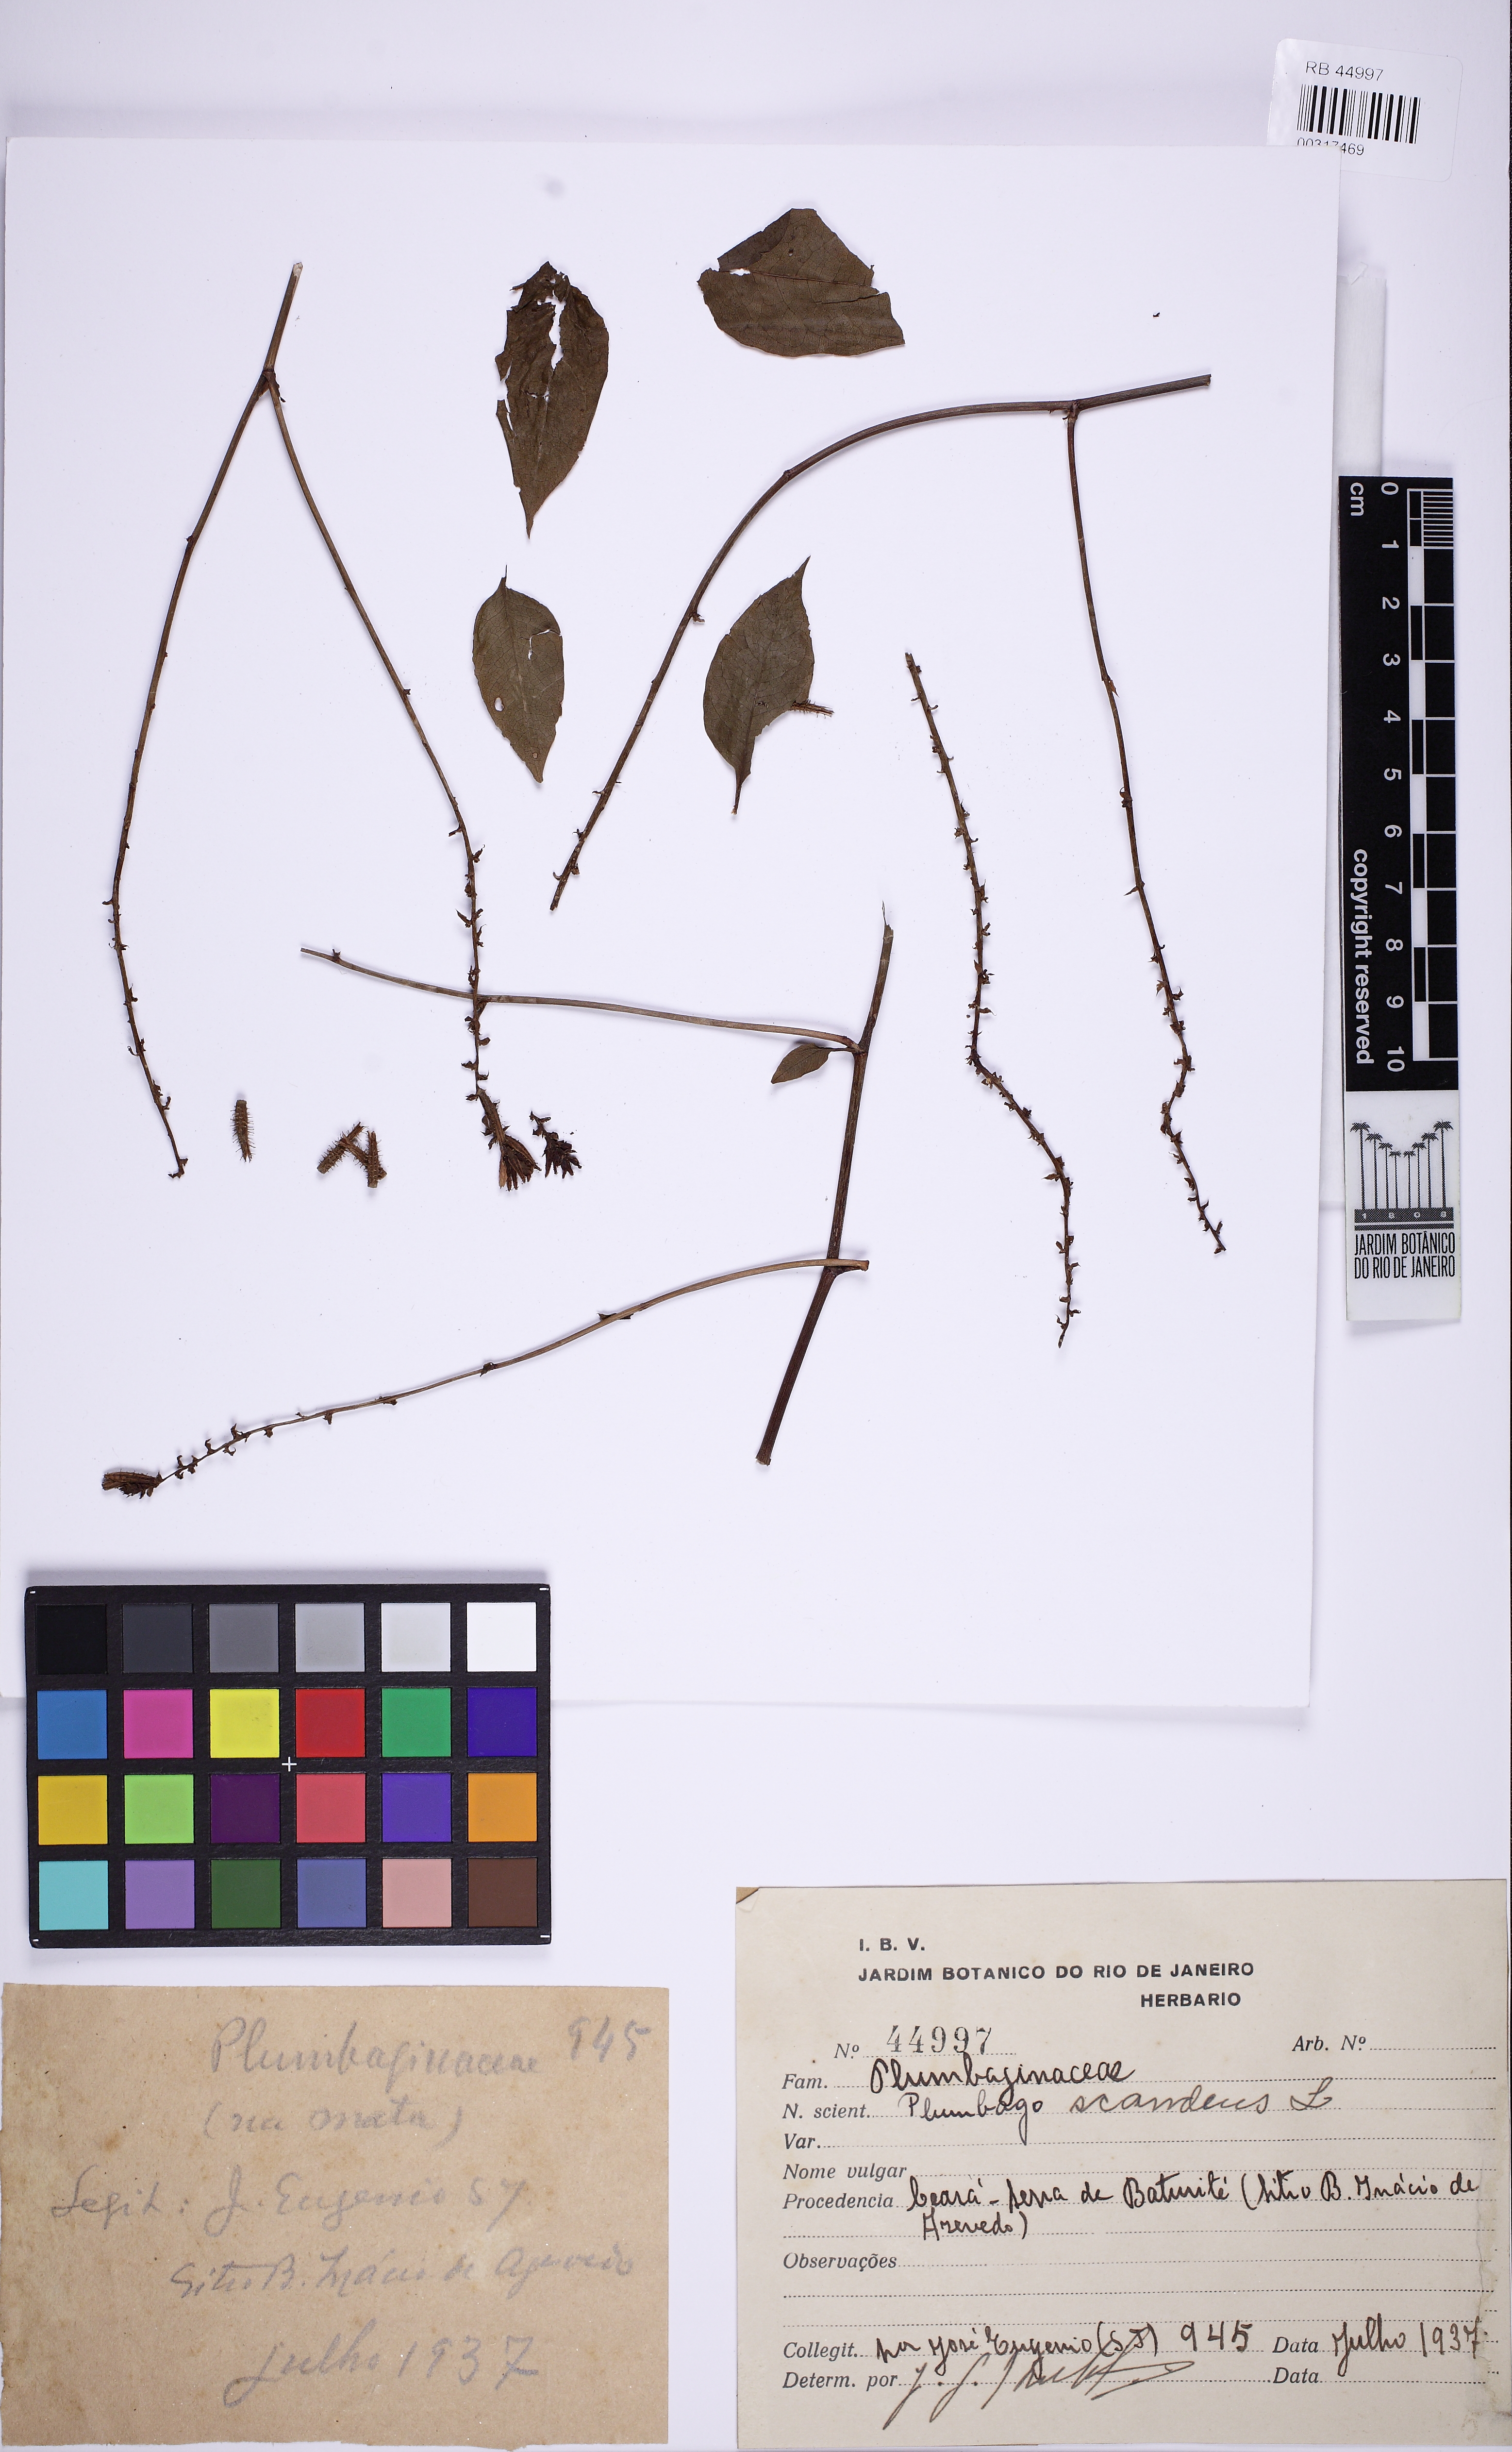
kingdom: Plantae
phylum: Tracheophyta
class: Magnoliopsida
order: Caryophyllales
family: Plumbaginaceae
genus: Plumbago
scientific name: Plumbago zeylanica
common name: Doctorbush
